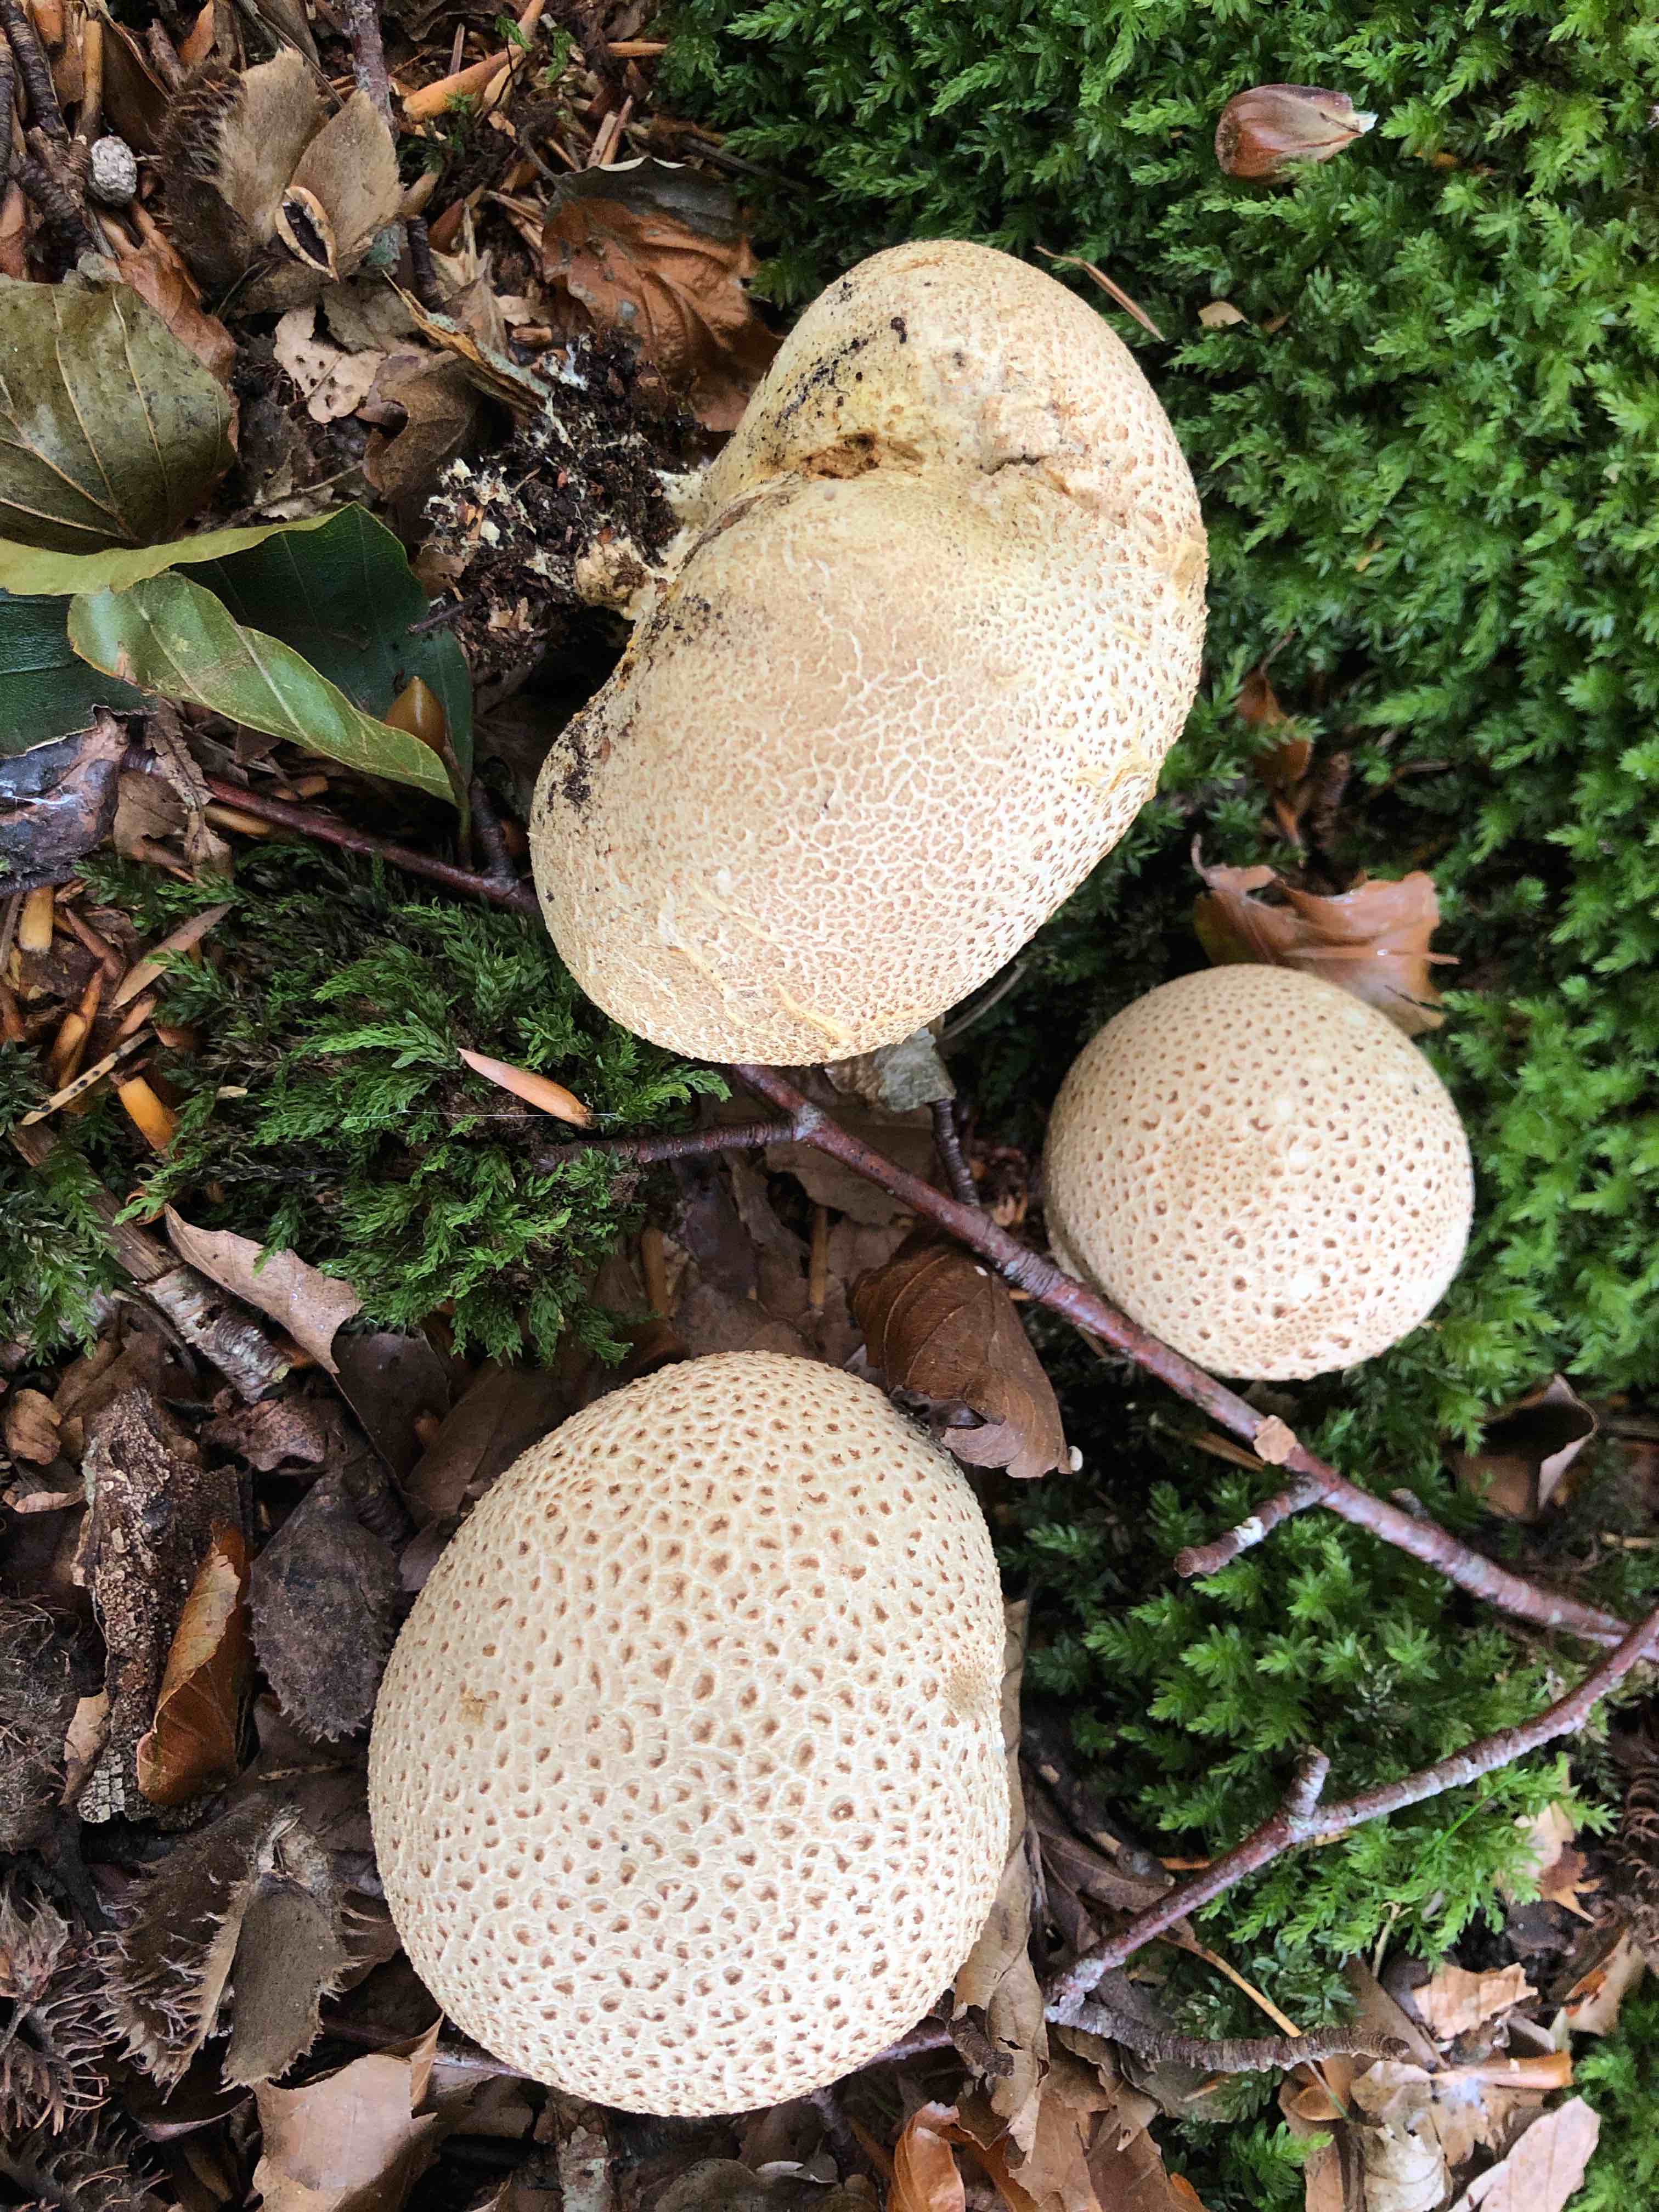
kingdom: Fungi
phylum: Basidiomycota
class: Agaricomycetes
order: Boletales
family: Sclerodermataceae
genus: Scleroderma
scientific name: Scleroderma citrinum
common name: almindelig bruskbold
